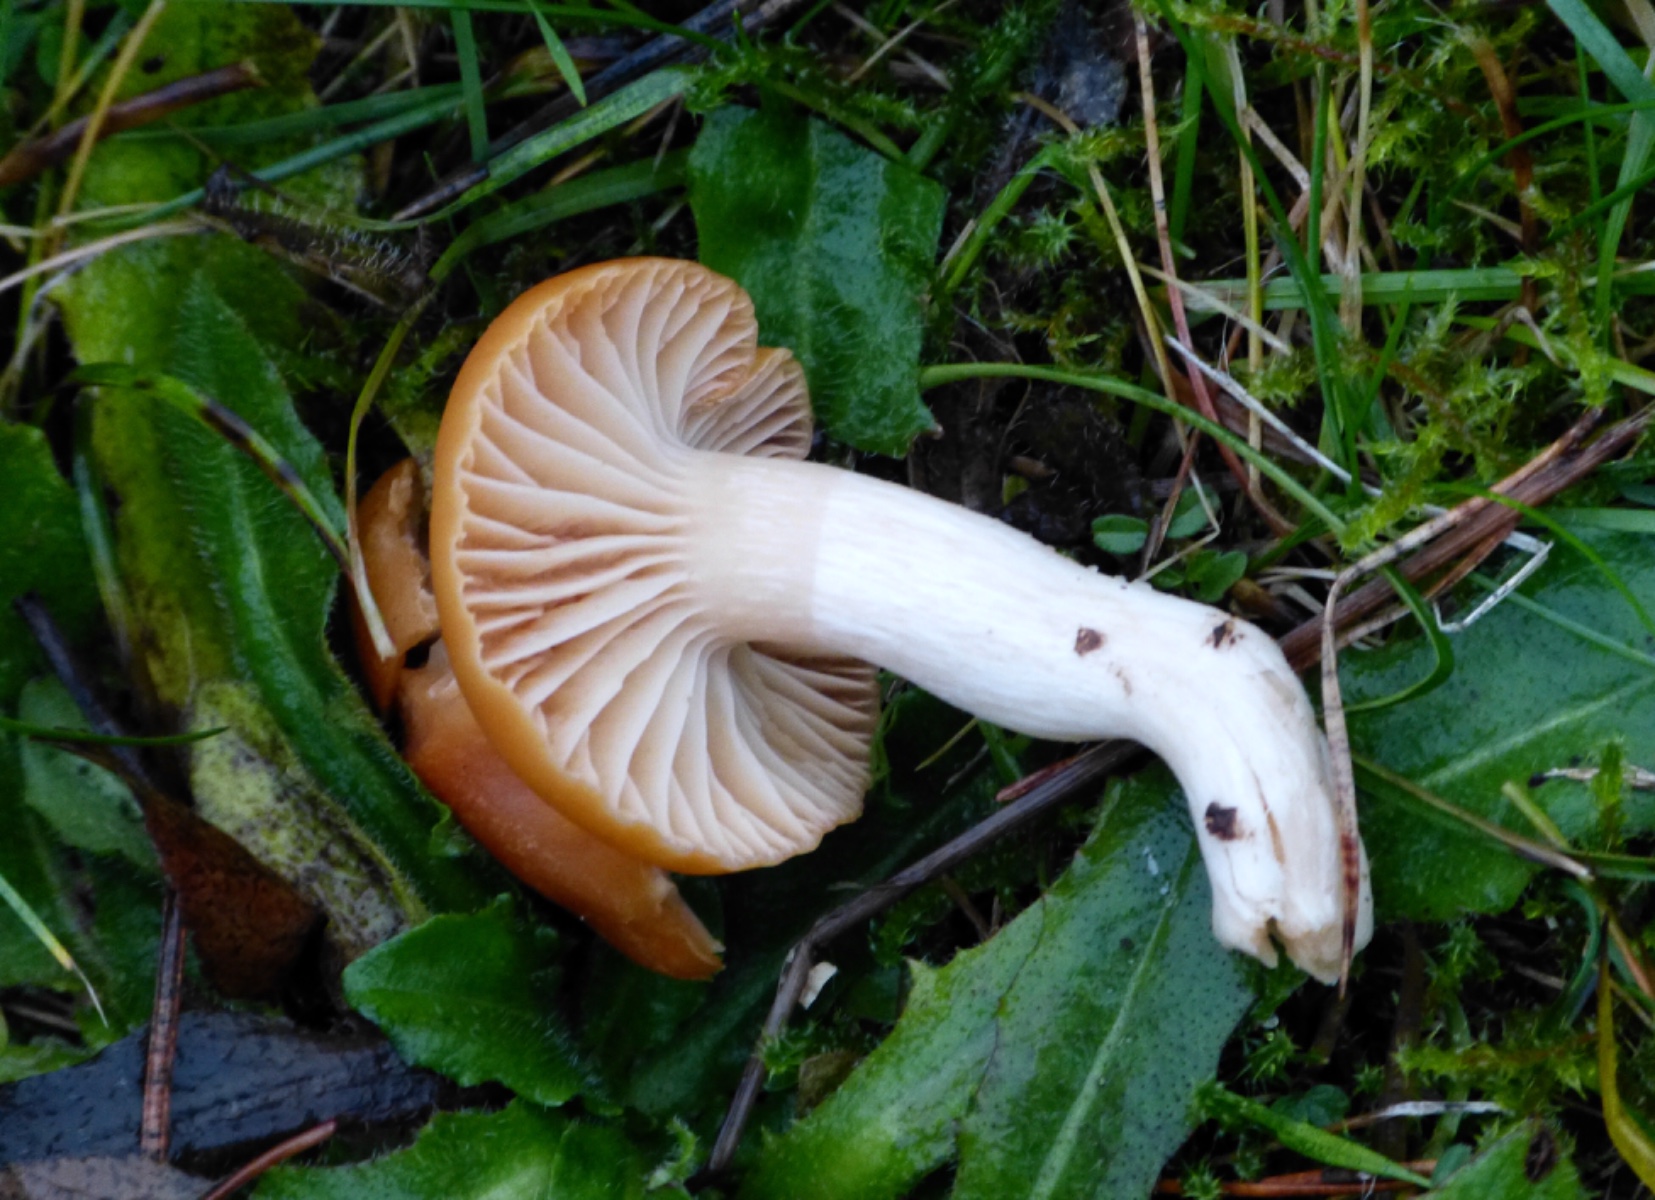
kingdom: Fungi
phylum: Basidiomycota
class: Agaricomycetes
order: Agaricales
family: Hygrophoraceae
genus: Cuphophyllus
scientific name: Cuphophyllus pratensis
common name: eng-vokshat
